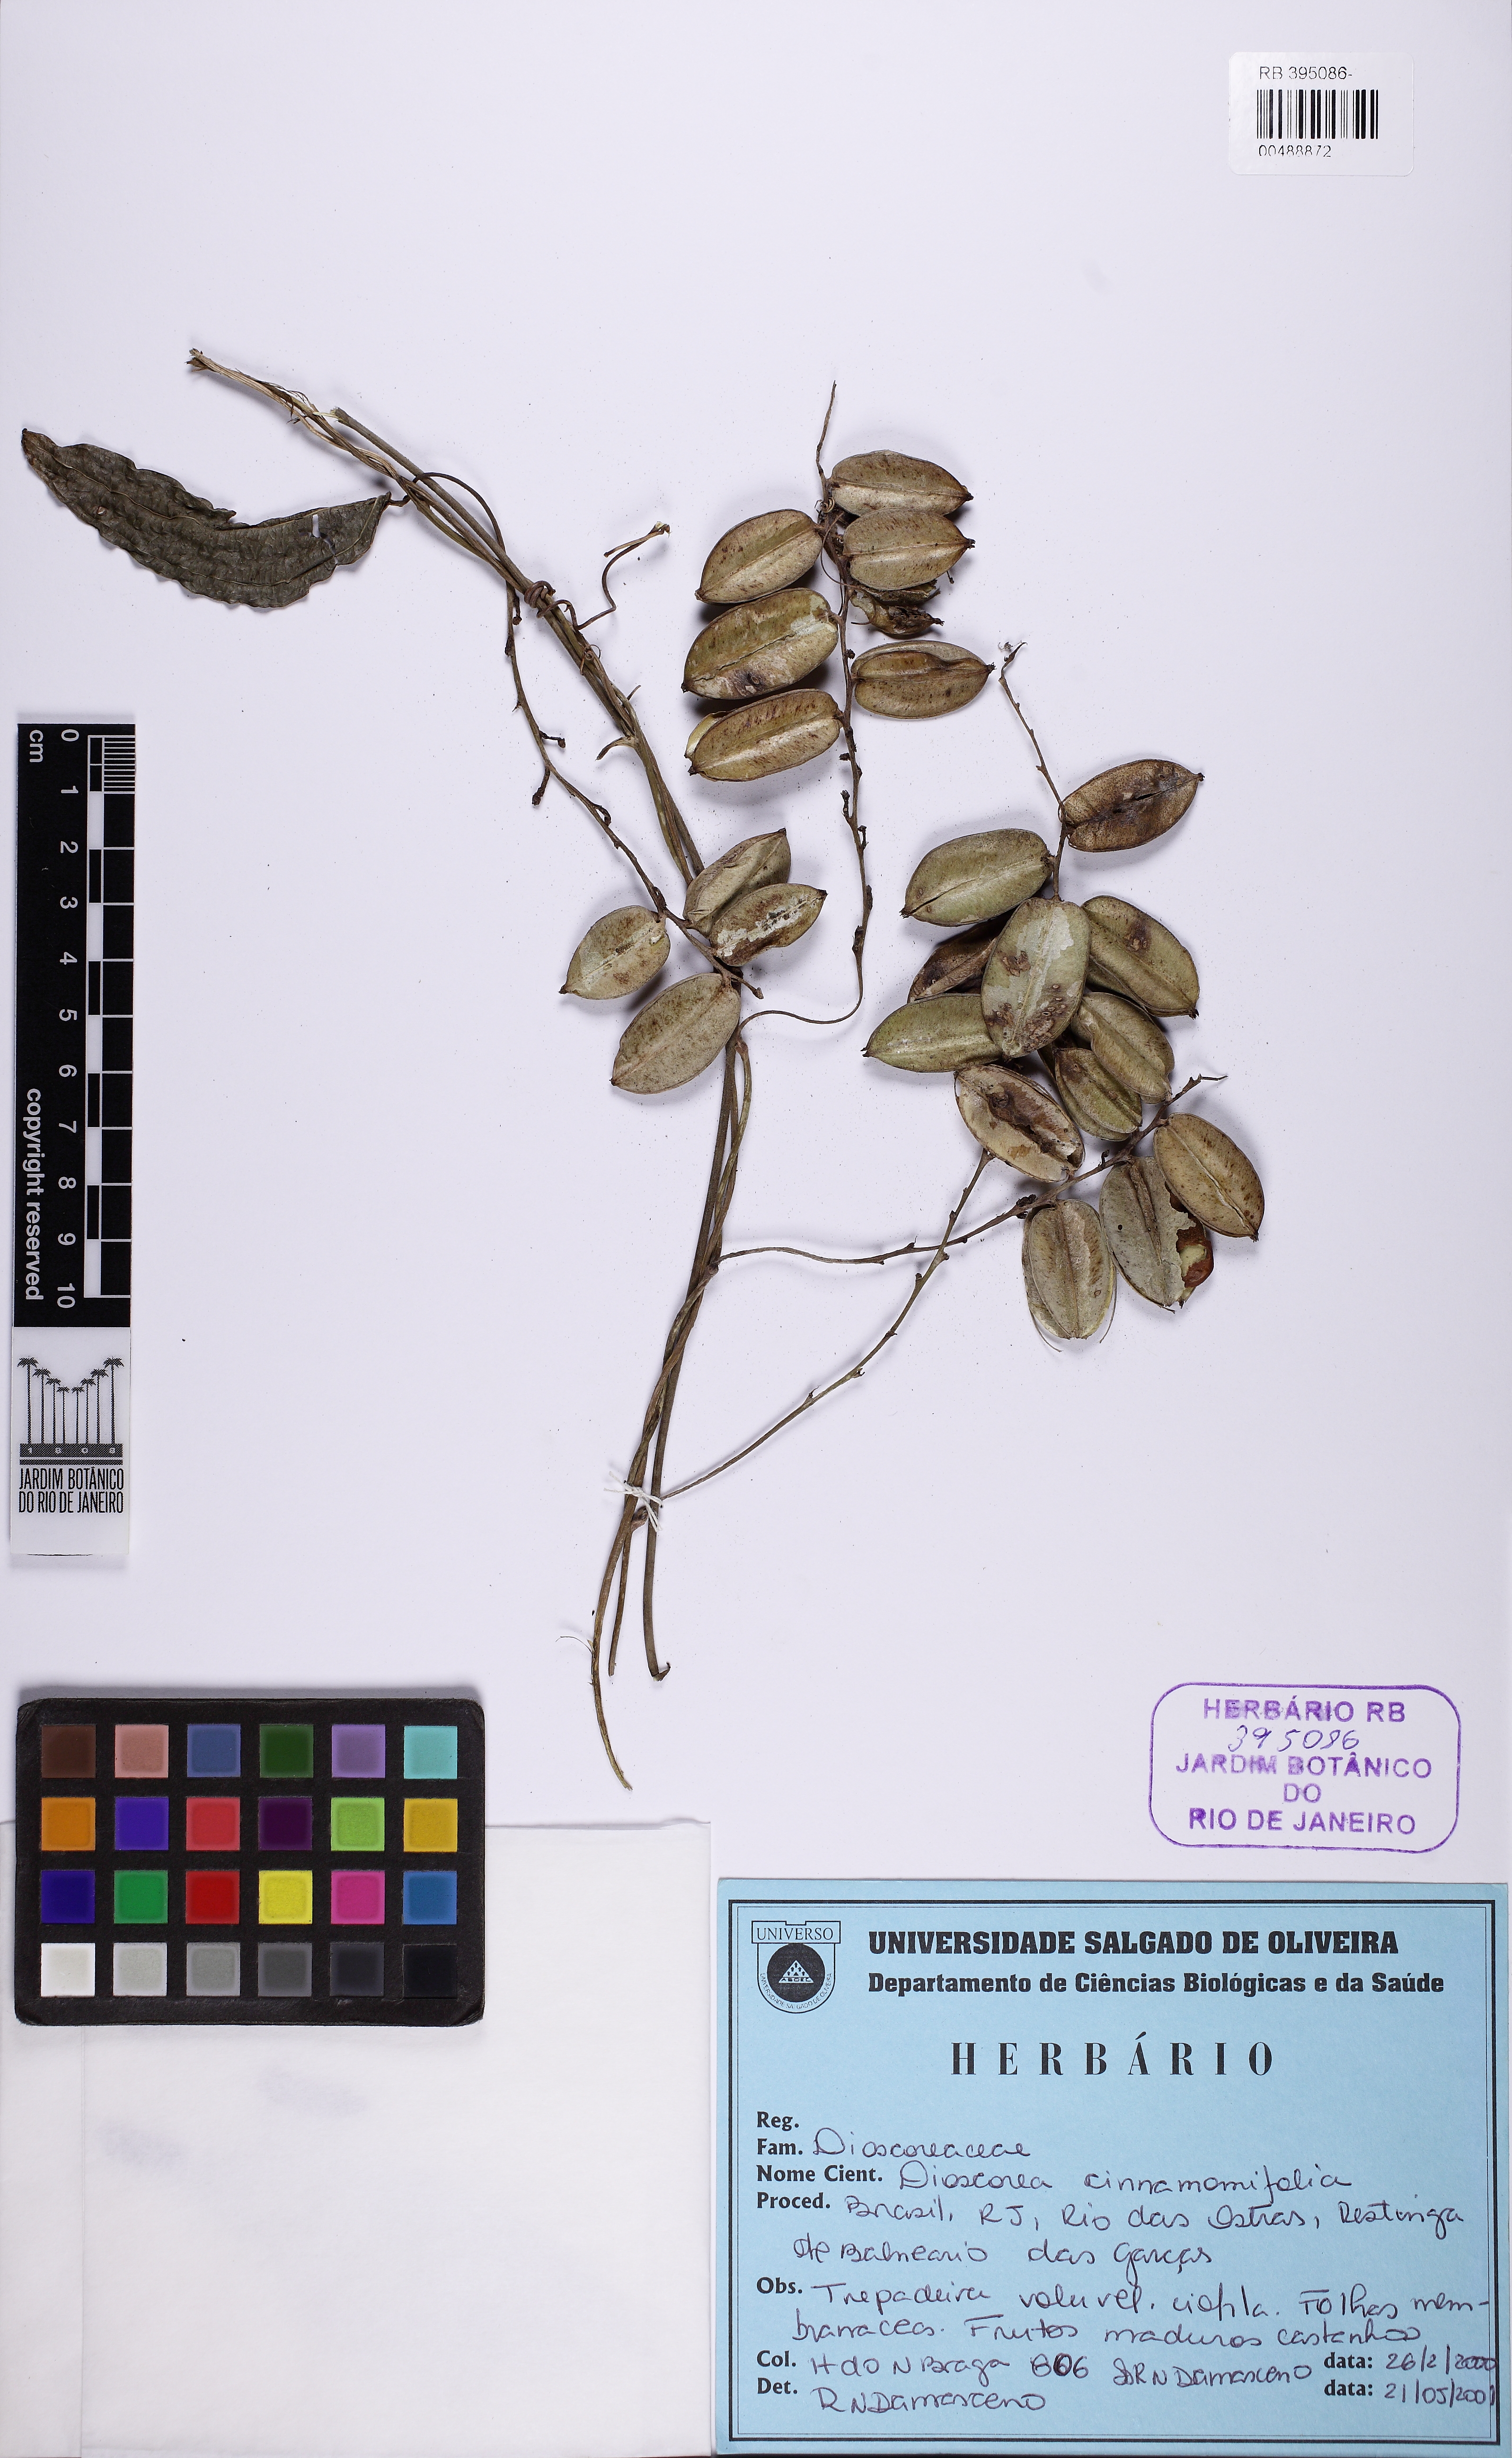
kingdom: Plantae
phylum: Tracheophyta
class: Liliopsida
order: Dioscoreales
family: Dioscoreaceae
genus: Dioscorea
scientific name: Dioscorea cinnamomifolia
